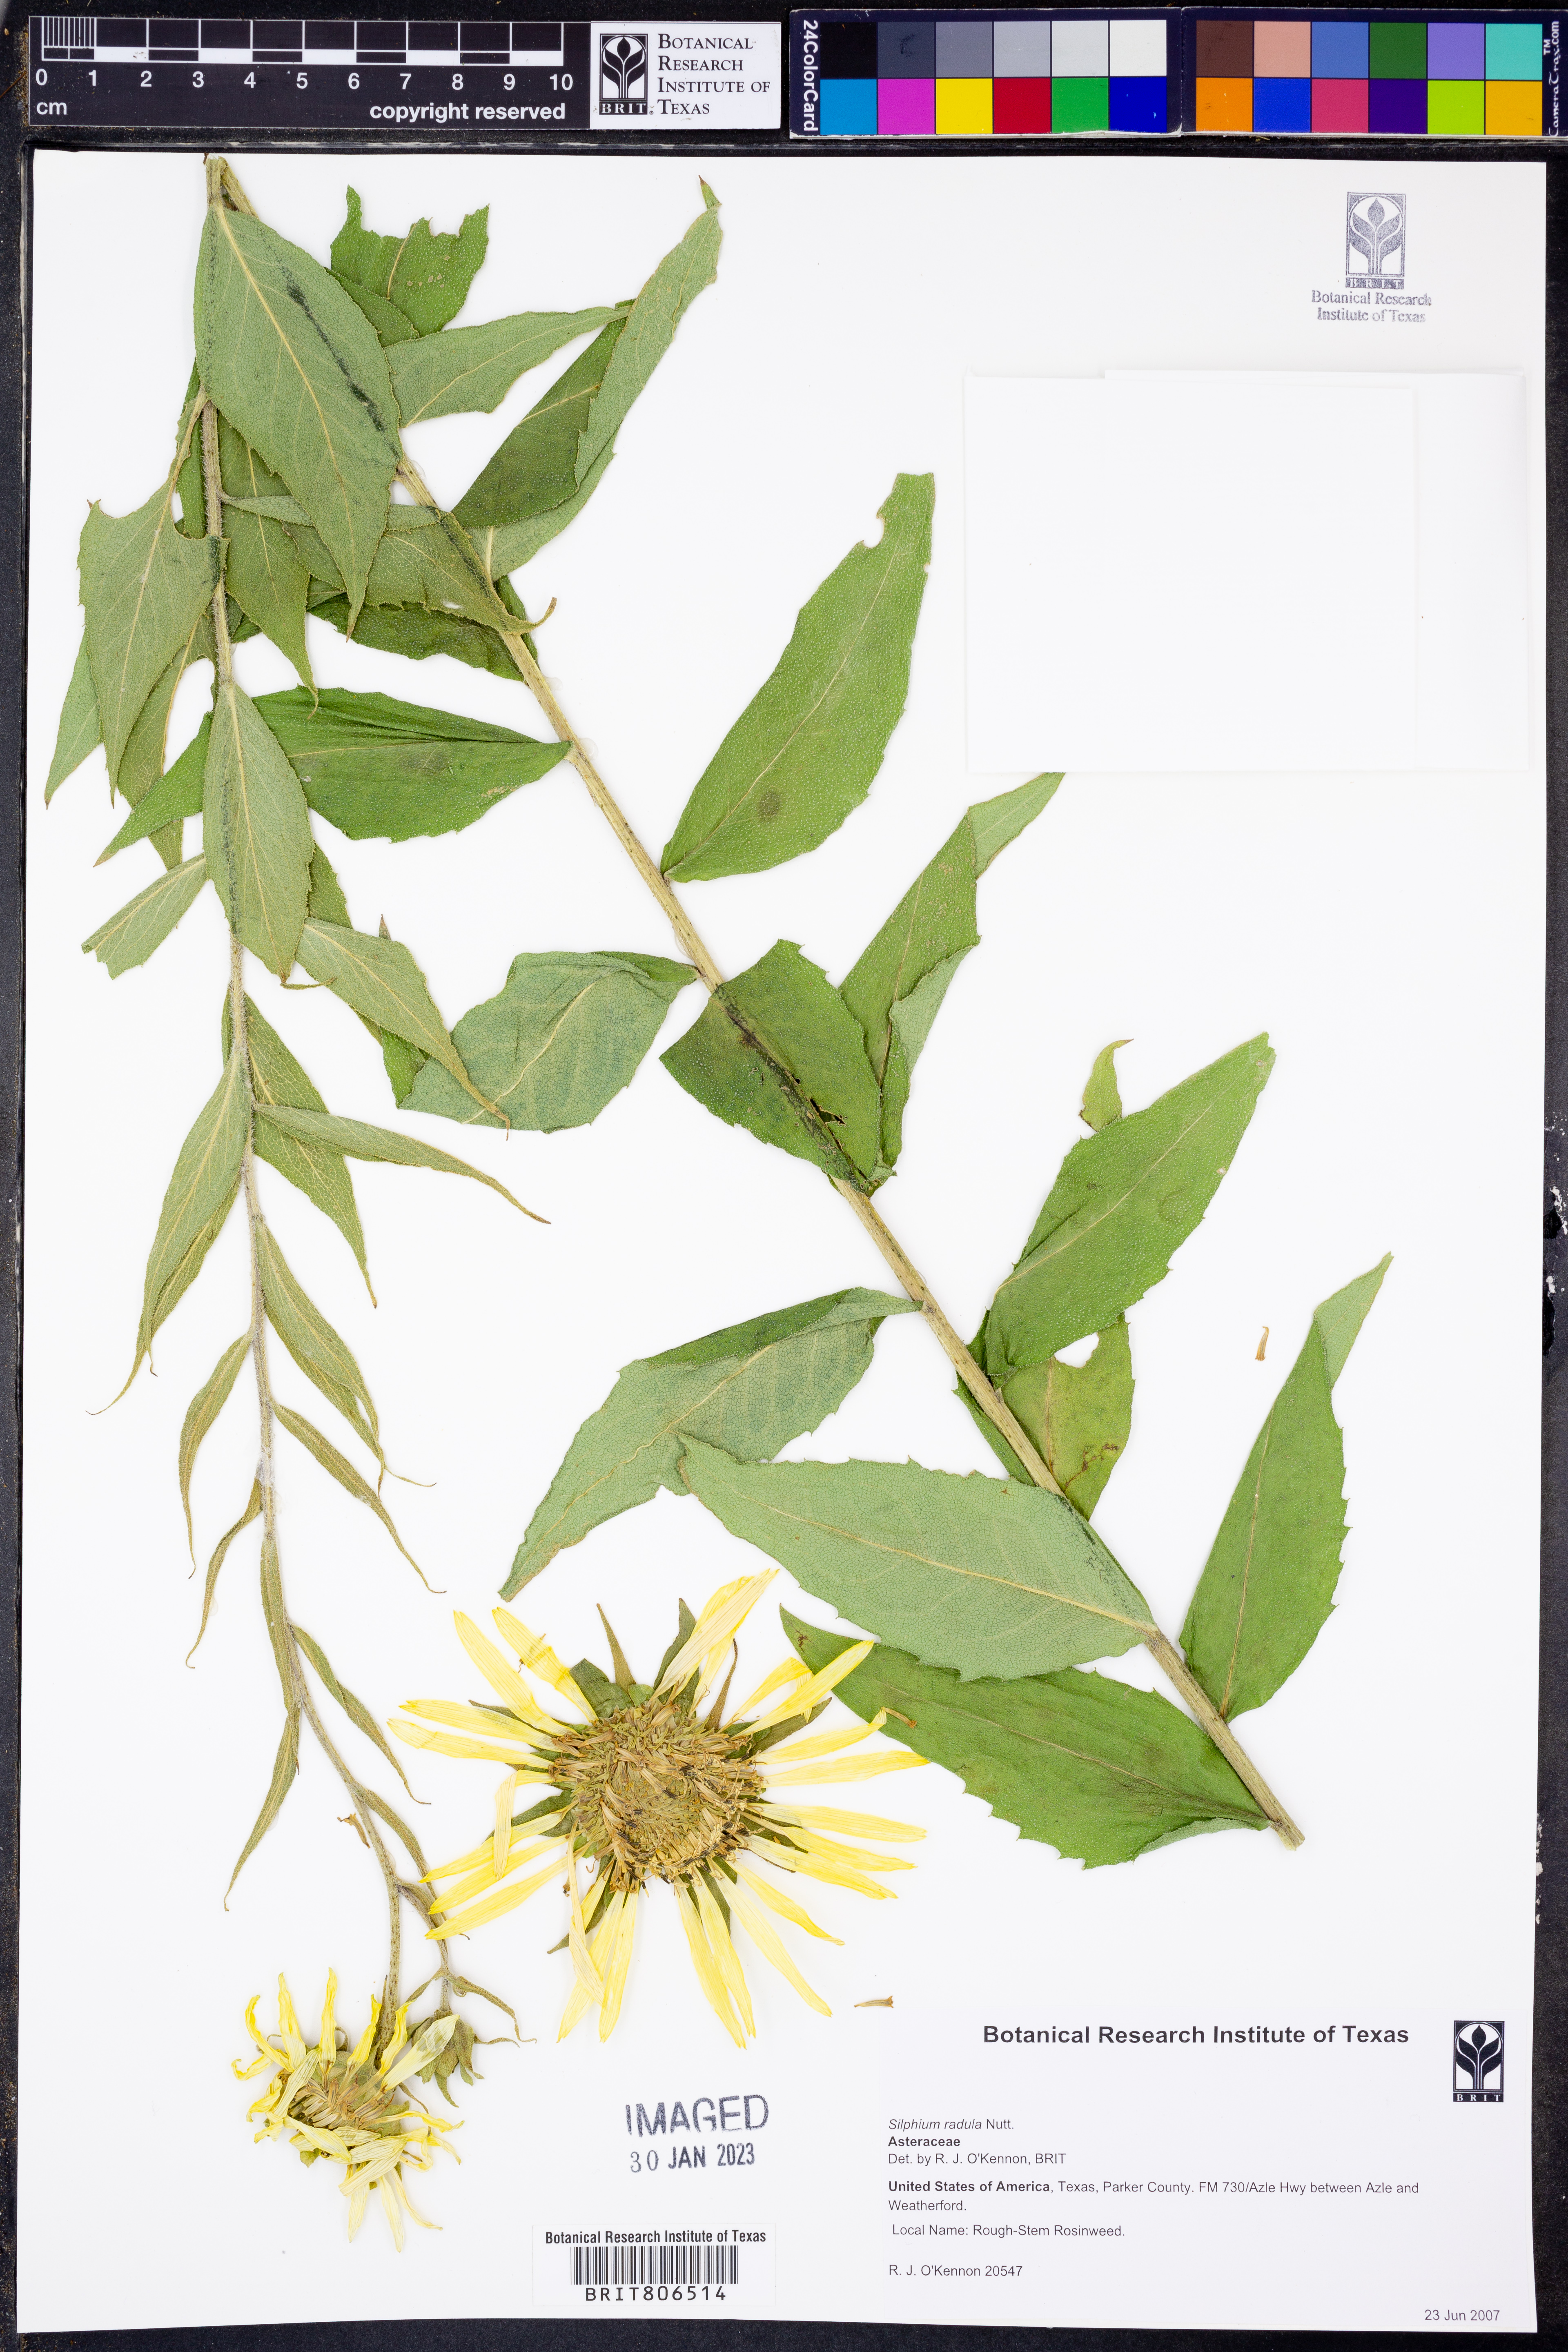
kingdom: Plantae
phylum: Tracheophyta
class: Magnoliopsida
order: Asterales
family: Asteraceae
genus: Silphium
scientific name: Silphium radula
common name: Roughleaf rosinweed
